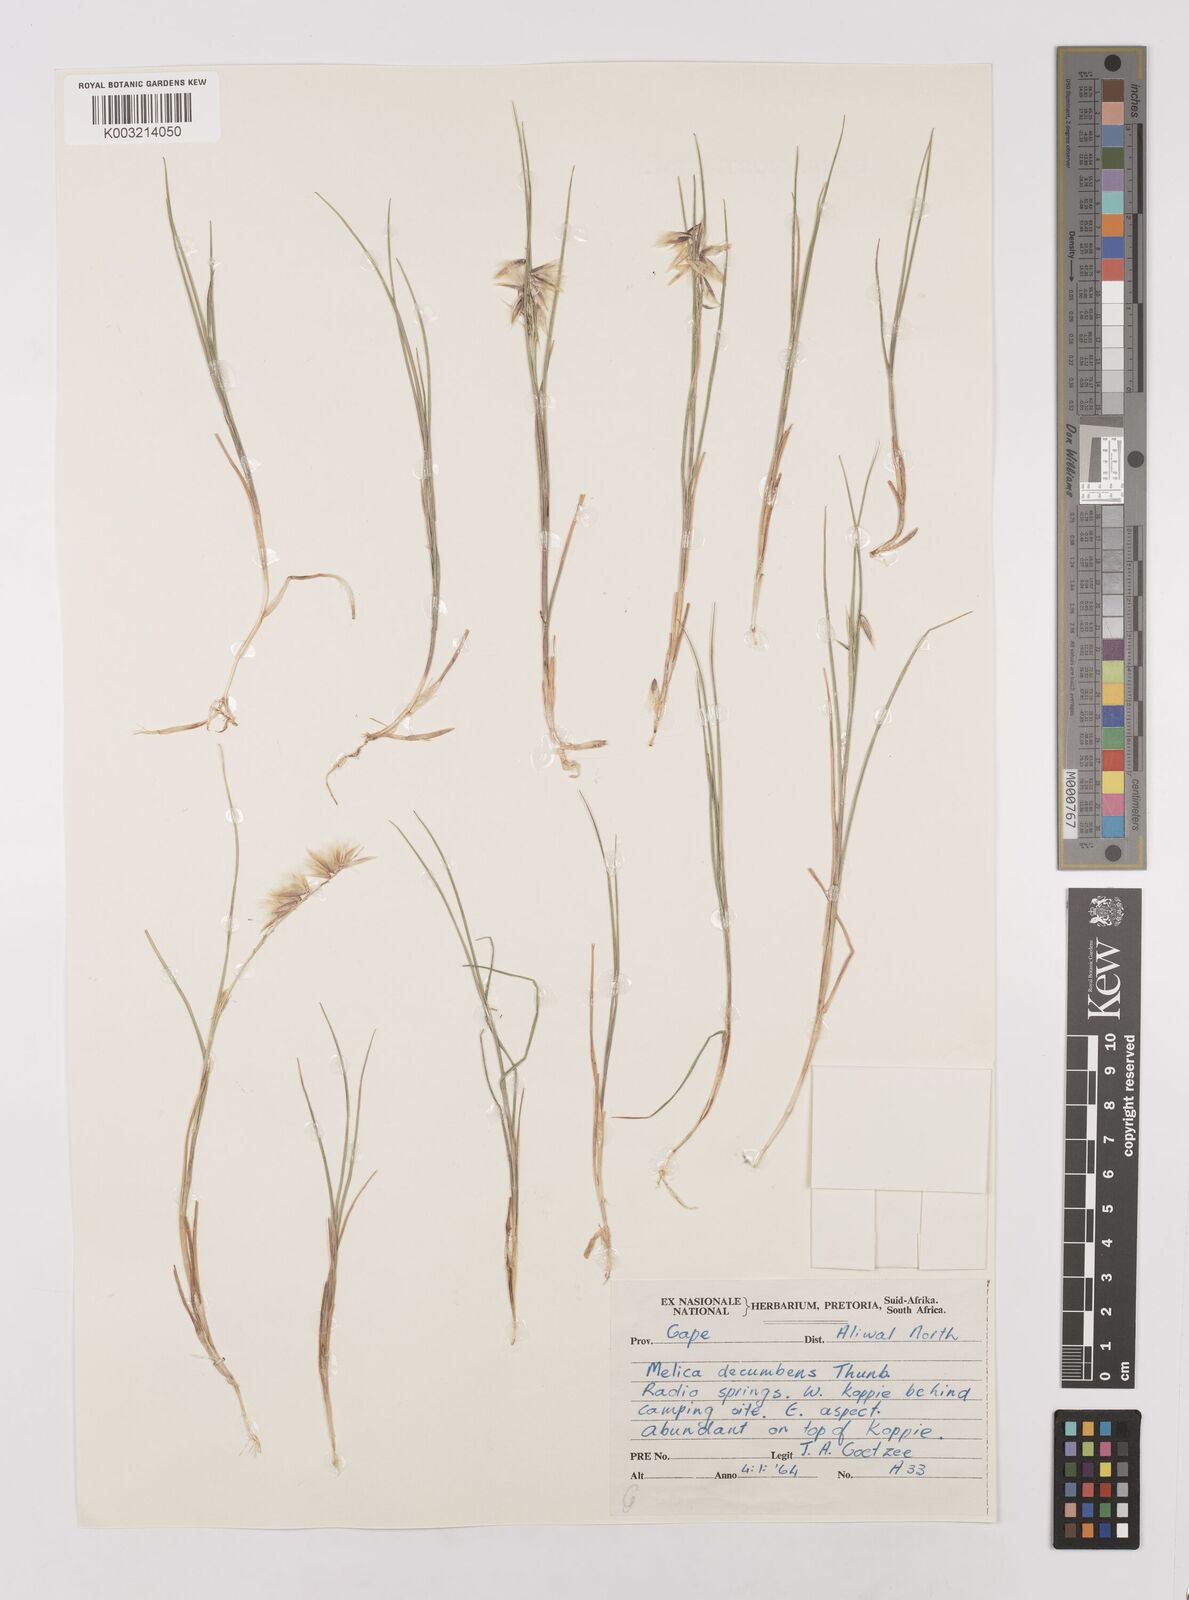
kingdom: Plantae
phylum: Tracheophyta
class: Liliopsida
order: Poales
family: Poaceae
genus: Melica
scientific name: Melica dendroides
